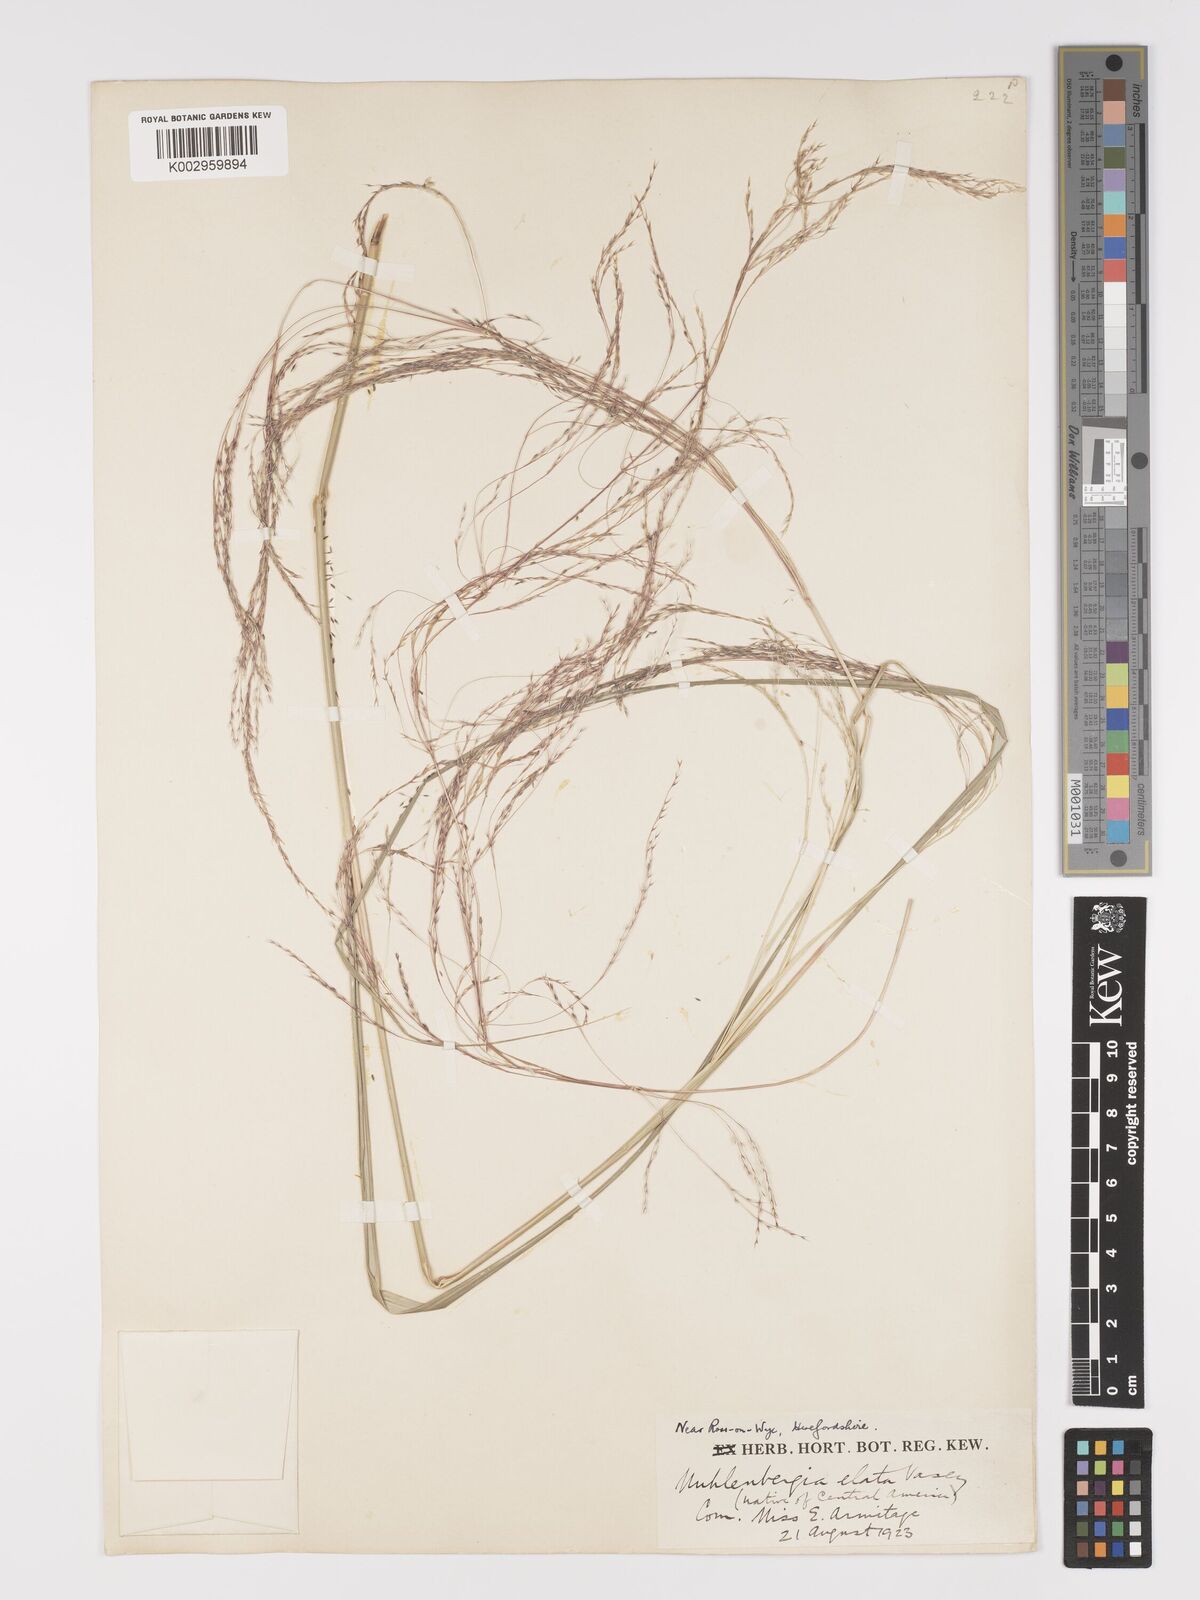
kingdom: Plantae
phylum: Tracheophyta
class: Liliopsida
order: Poales
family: Poaceae
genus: Stipa
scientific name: Stipa
